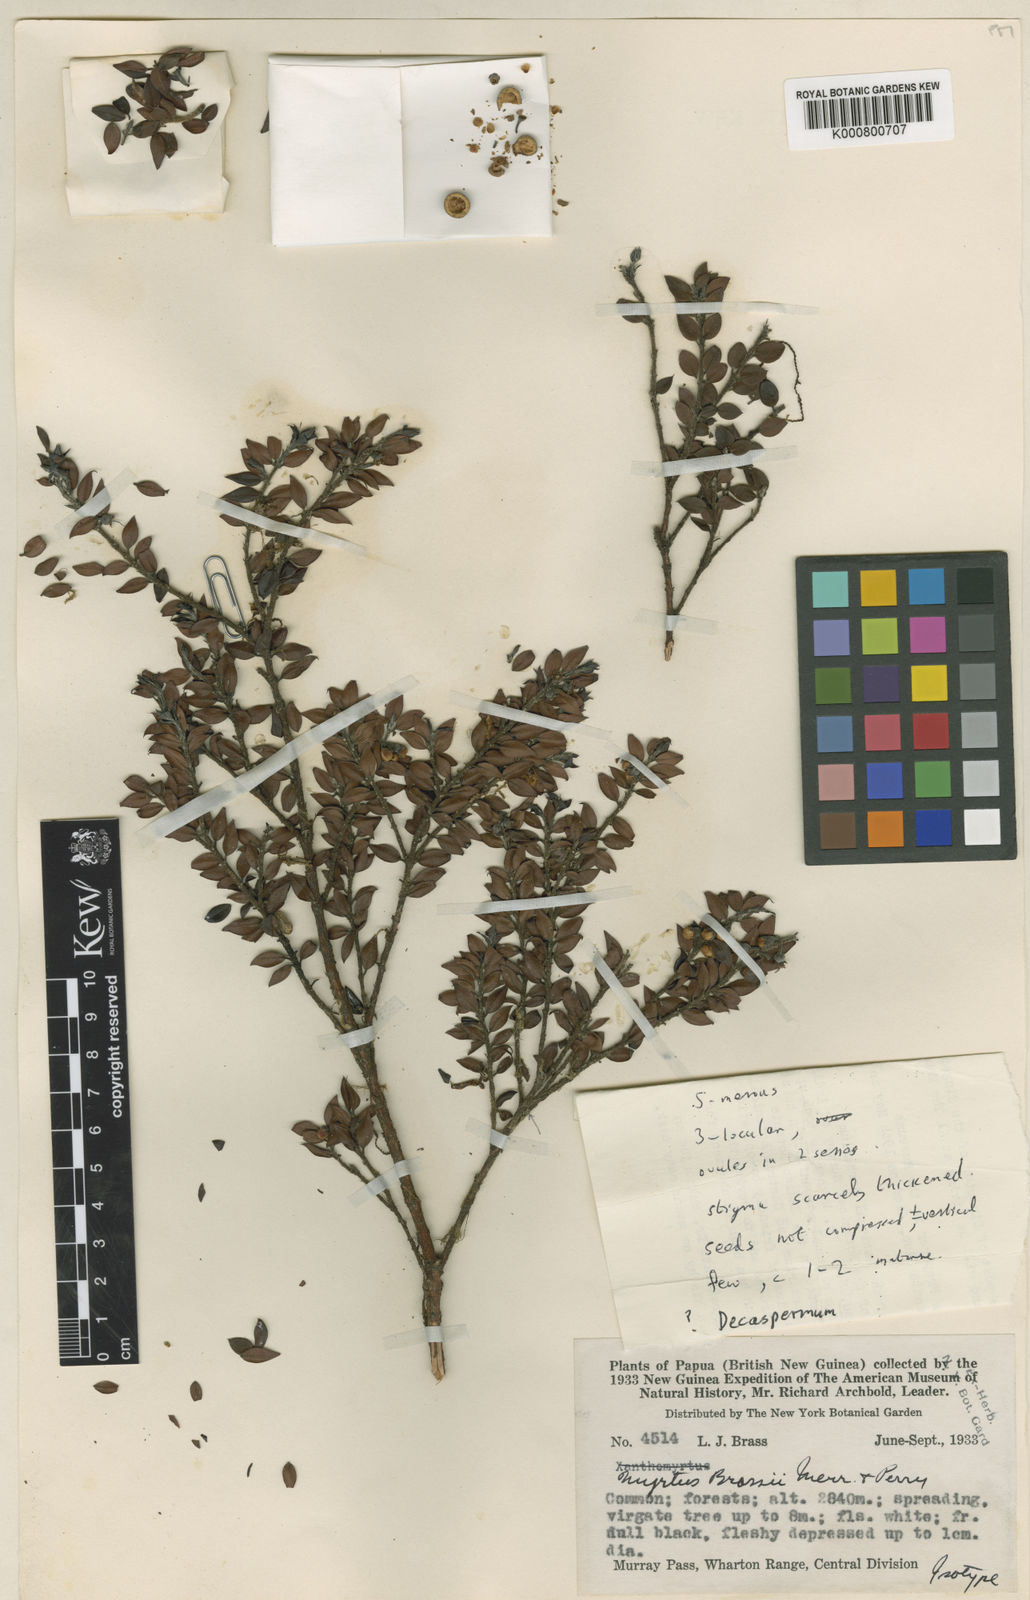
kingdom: Plantae
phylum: Tracheophyta
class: Magnoliopsida
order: Myrtales
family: Myrtaceae
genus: Uromyrtus
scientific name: Uromyrtus brassii
